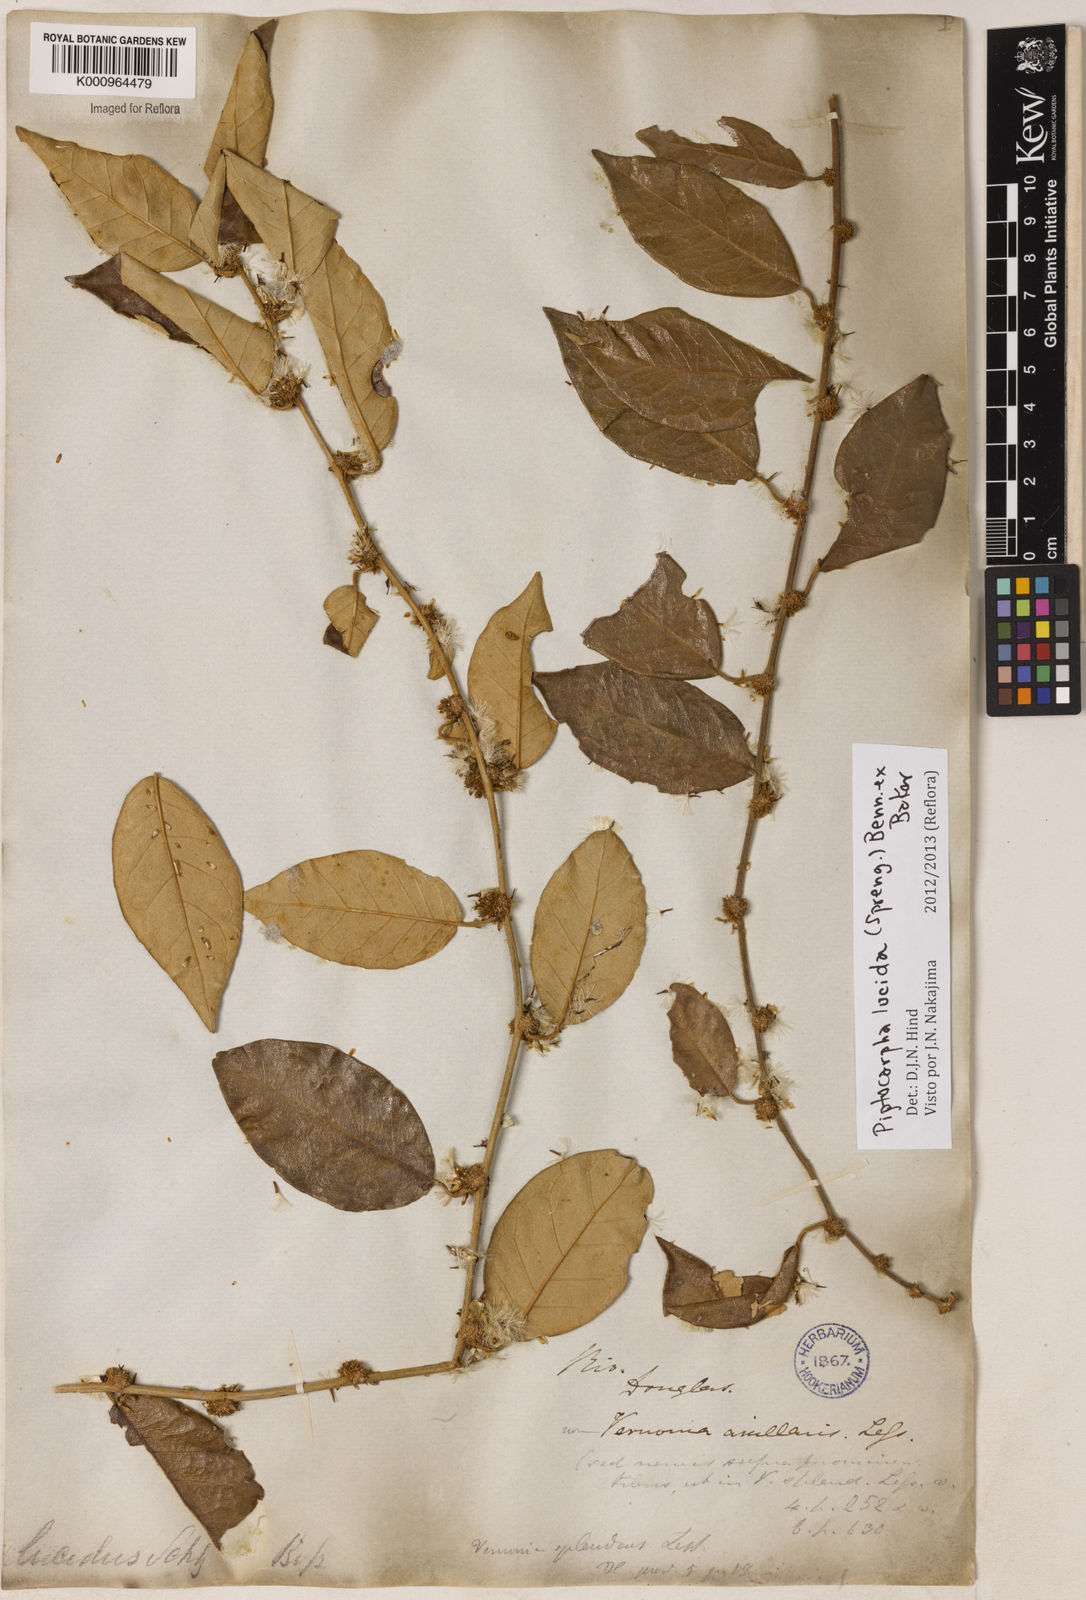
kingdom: Plantae
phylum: Tracheophyta
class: Magnoliopsida
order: Asterales
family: Asteraceae
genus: Piptocarpha
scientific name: Piptocarpha lucida
